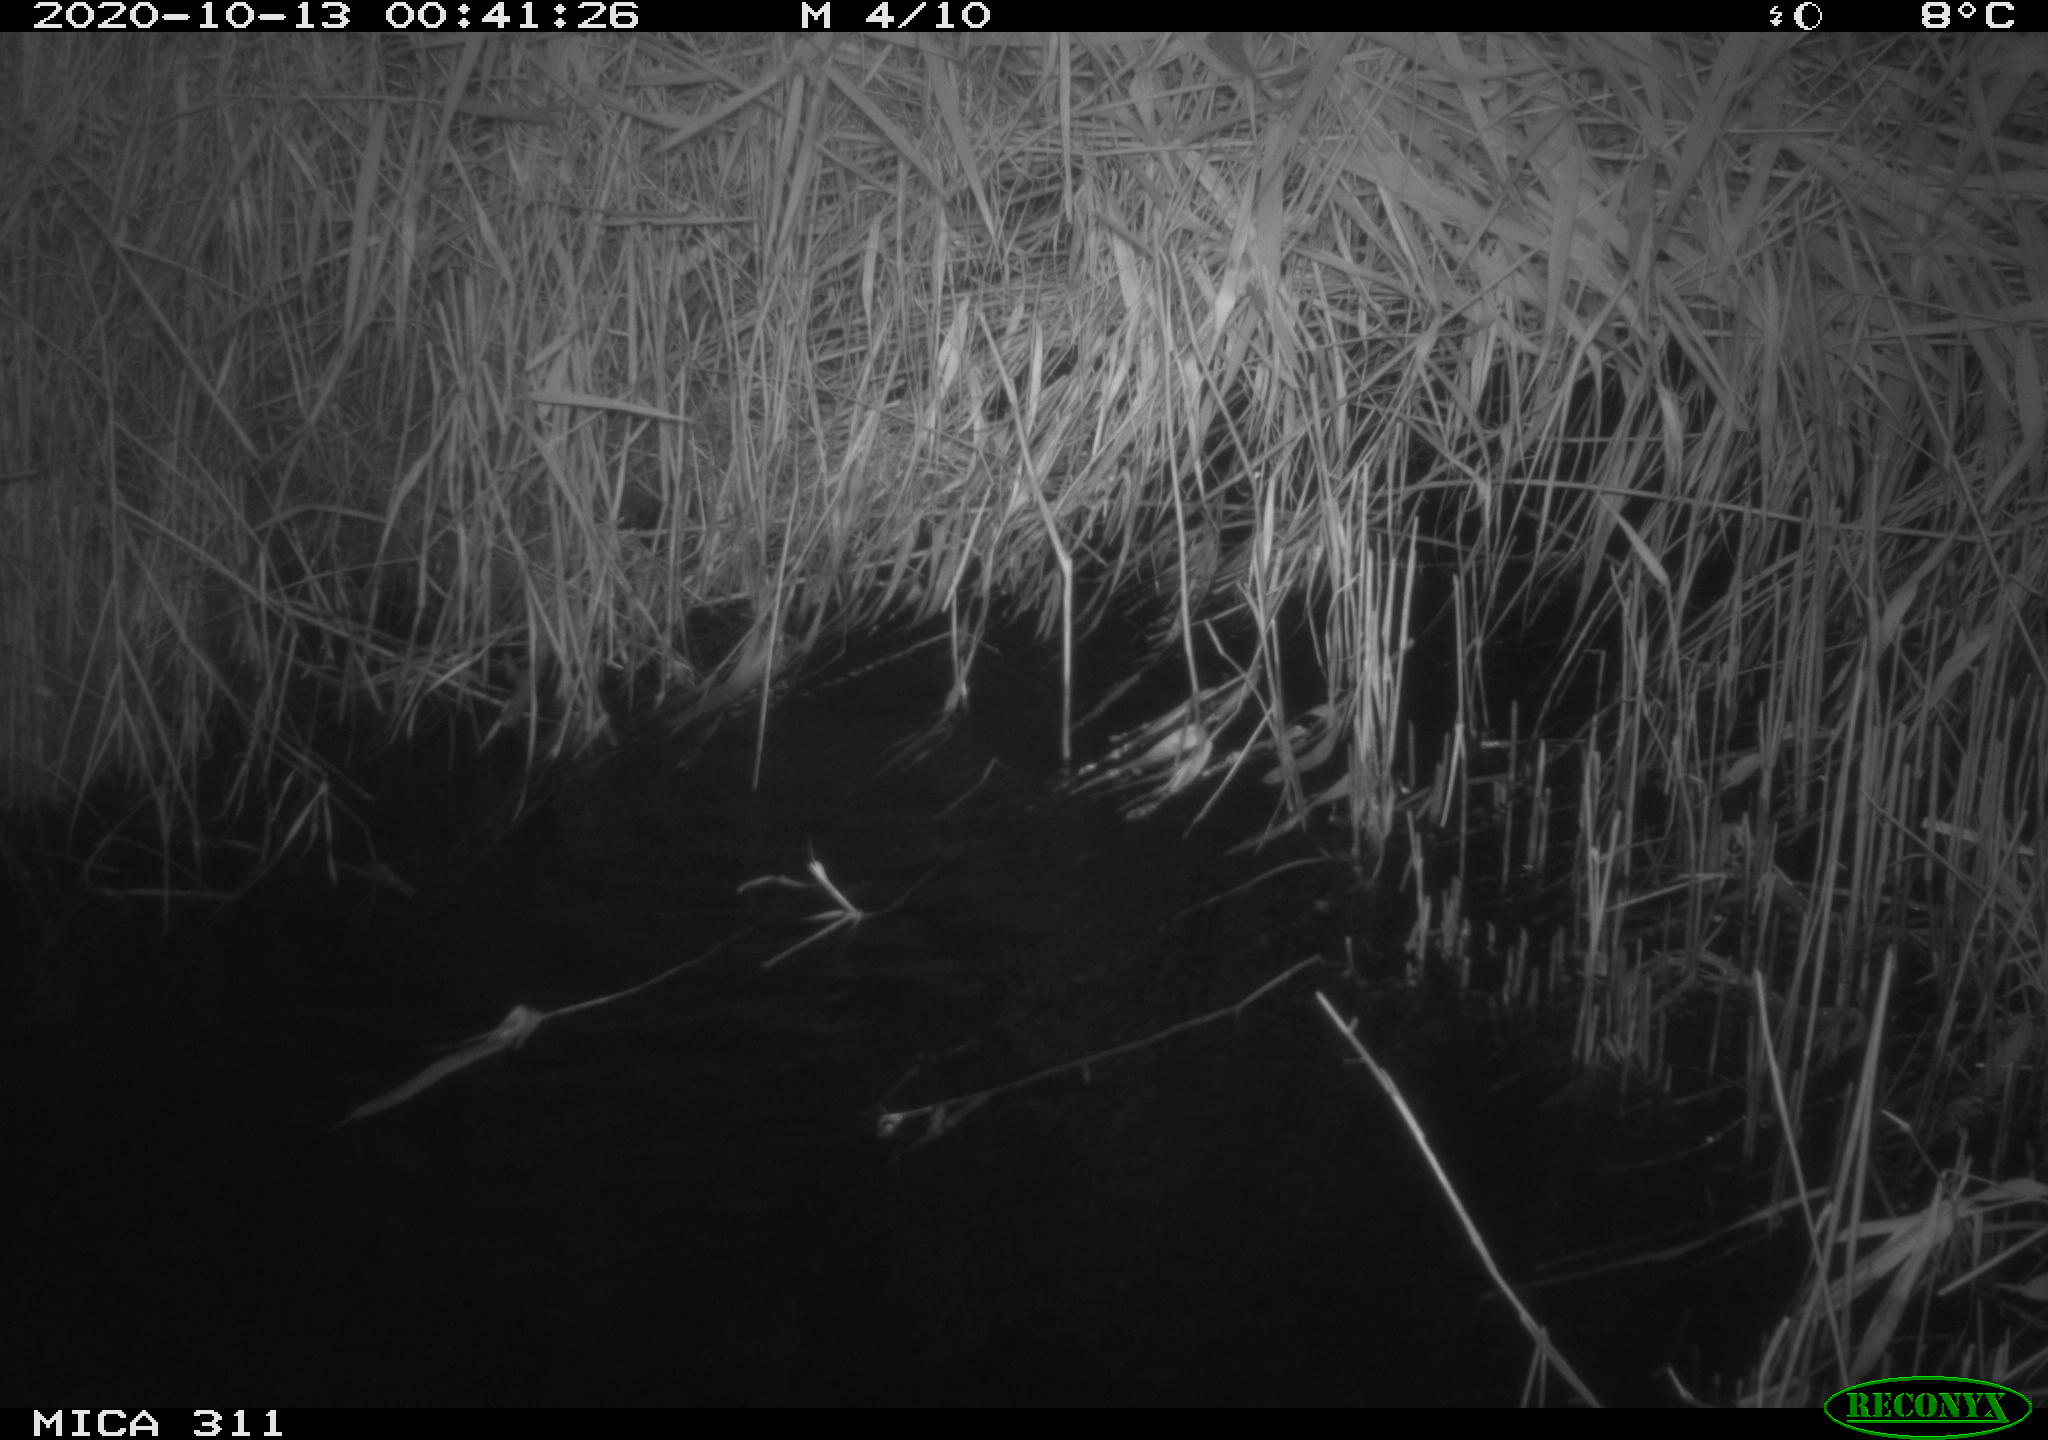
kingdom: Animalia
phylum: Chordata
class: Mammalia
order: Rodentia
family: Cricetidae
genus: Ondatra
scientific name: Ondatra zibethicus
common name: Muskrat
